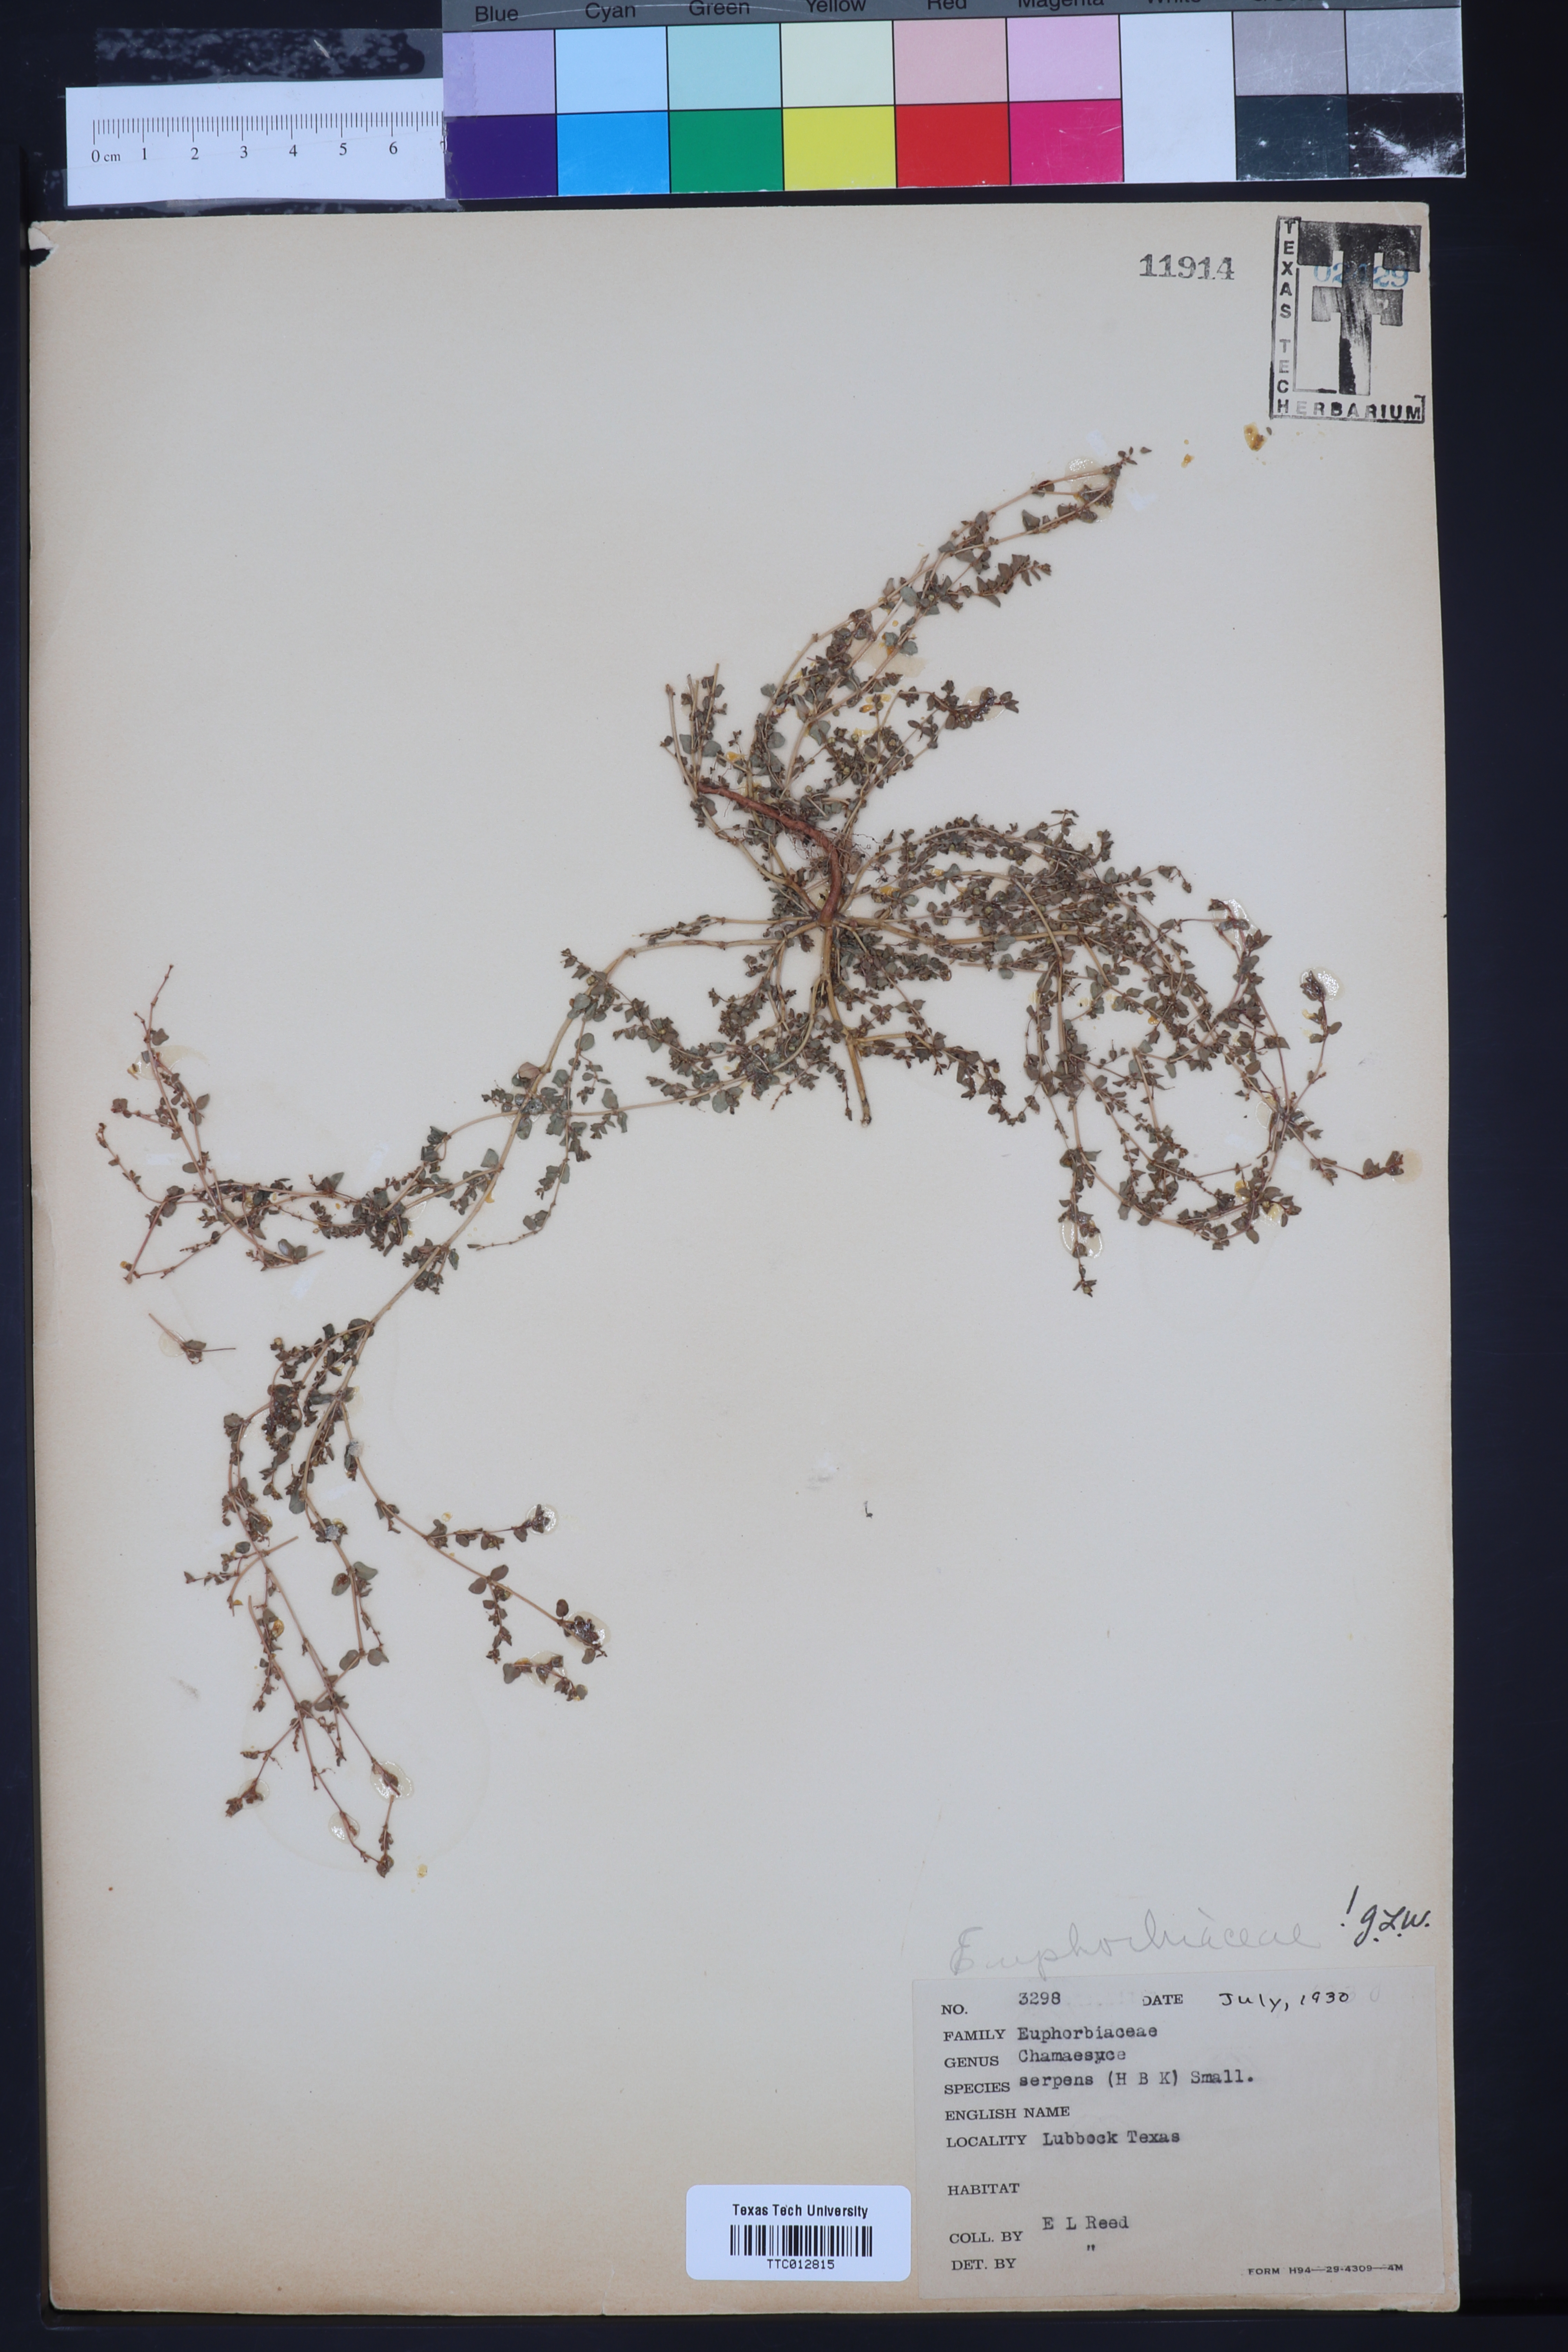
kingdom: Plantae
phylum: Tracheophyta
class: Magnoliopsida
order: Malpighiales
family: Euphorbiaceae
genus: Euphorbia
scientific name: Euphorbia serpens
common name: Matted sandmat
